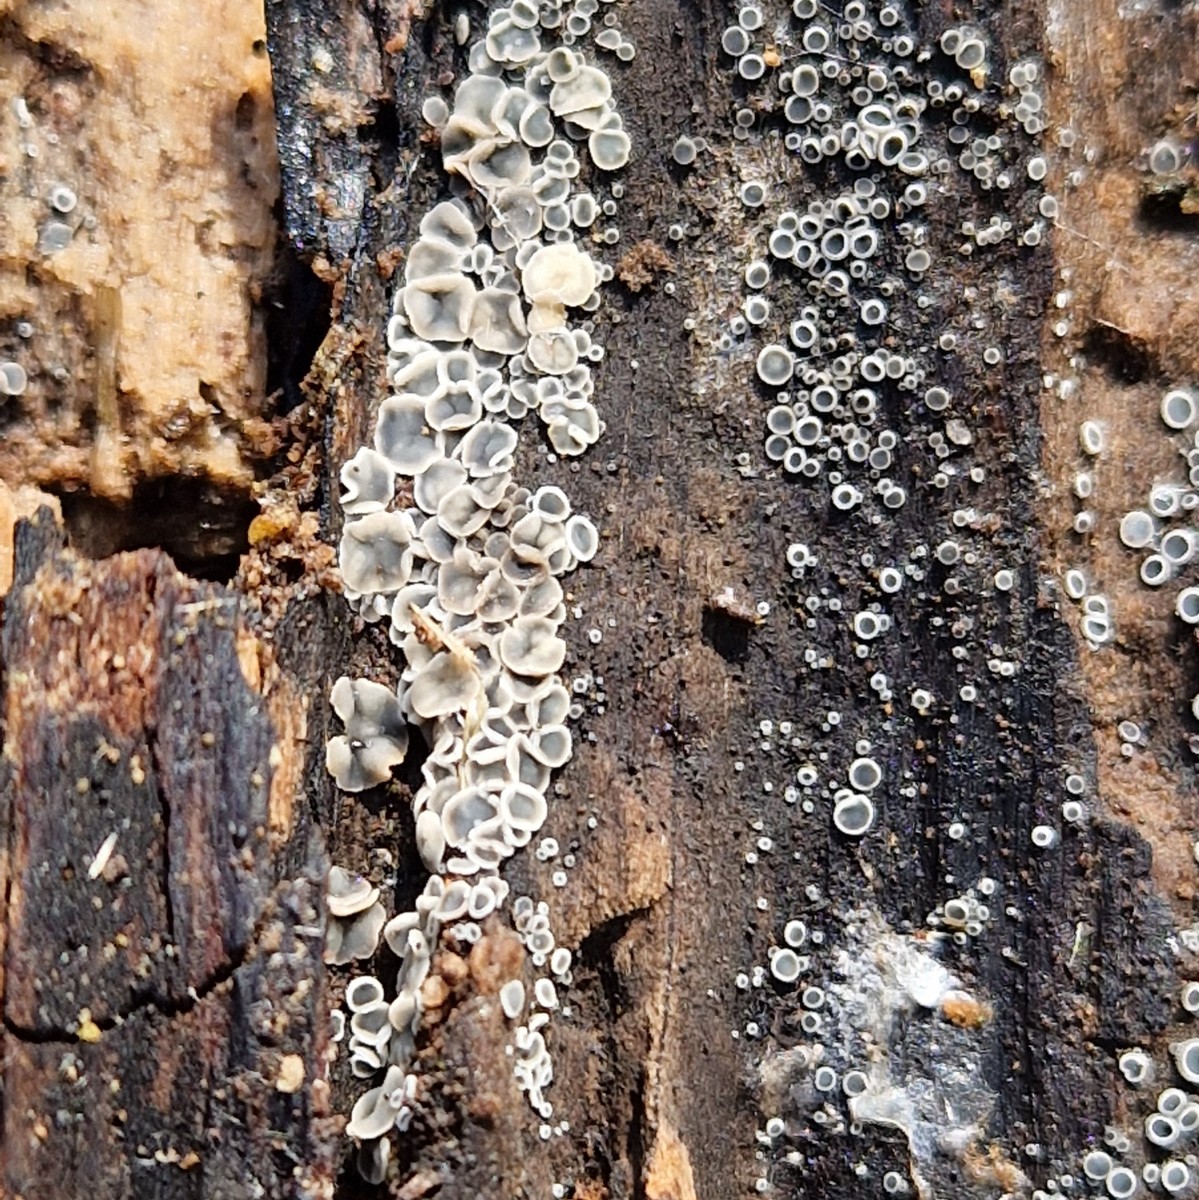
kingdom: Fungi
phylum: Ascomycota
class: Leotiomycetes
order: Helotiales
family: Mollisiaceae
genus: Mollisia
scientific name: Mollisia
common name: gråskive
